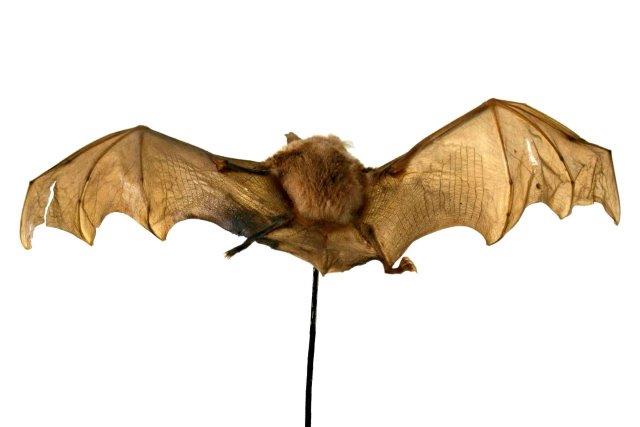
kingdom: Animalia
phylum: Chordata
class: Mammalia
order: Chiroptera
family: Rhinolophidae
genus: Rhinolophus
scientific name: Rhinolophus ferrumequinum
